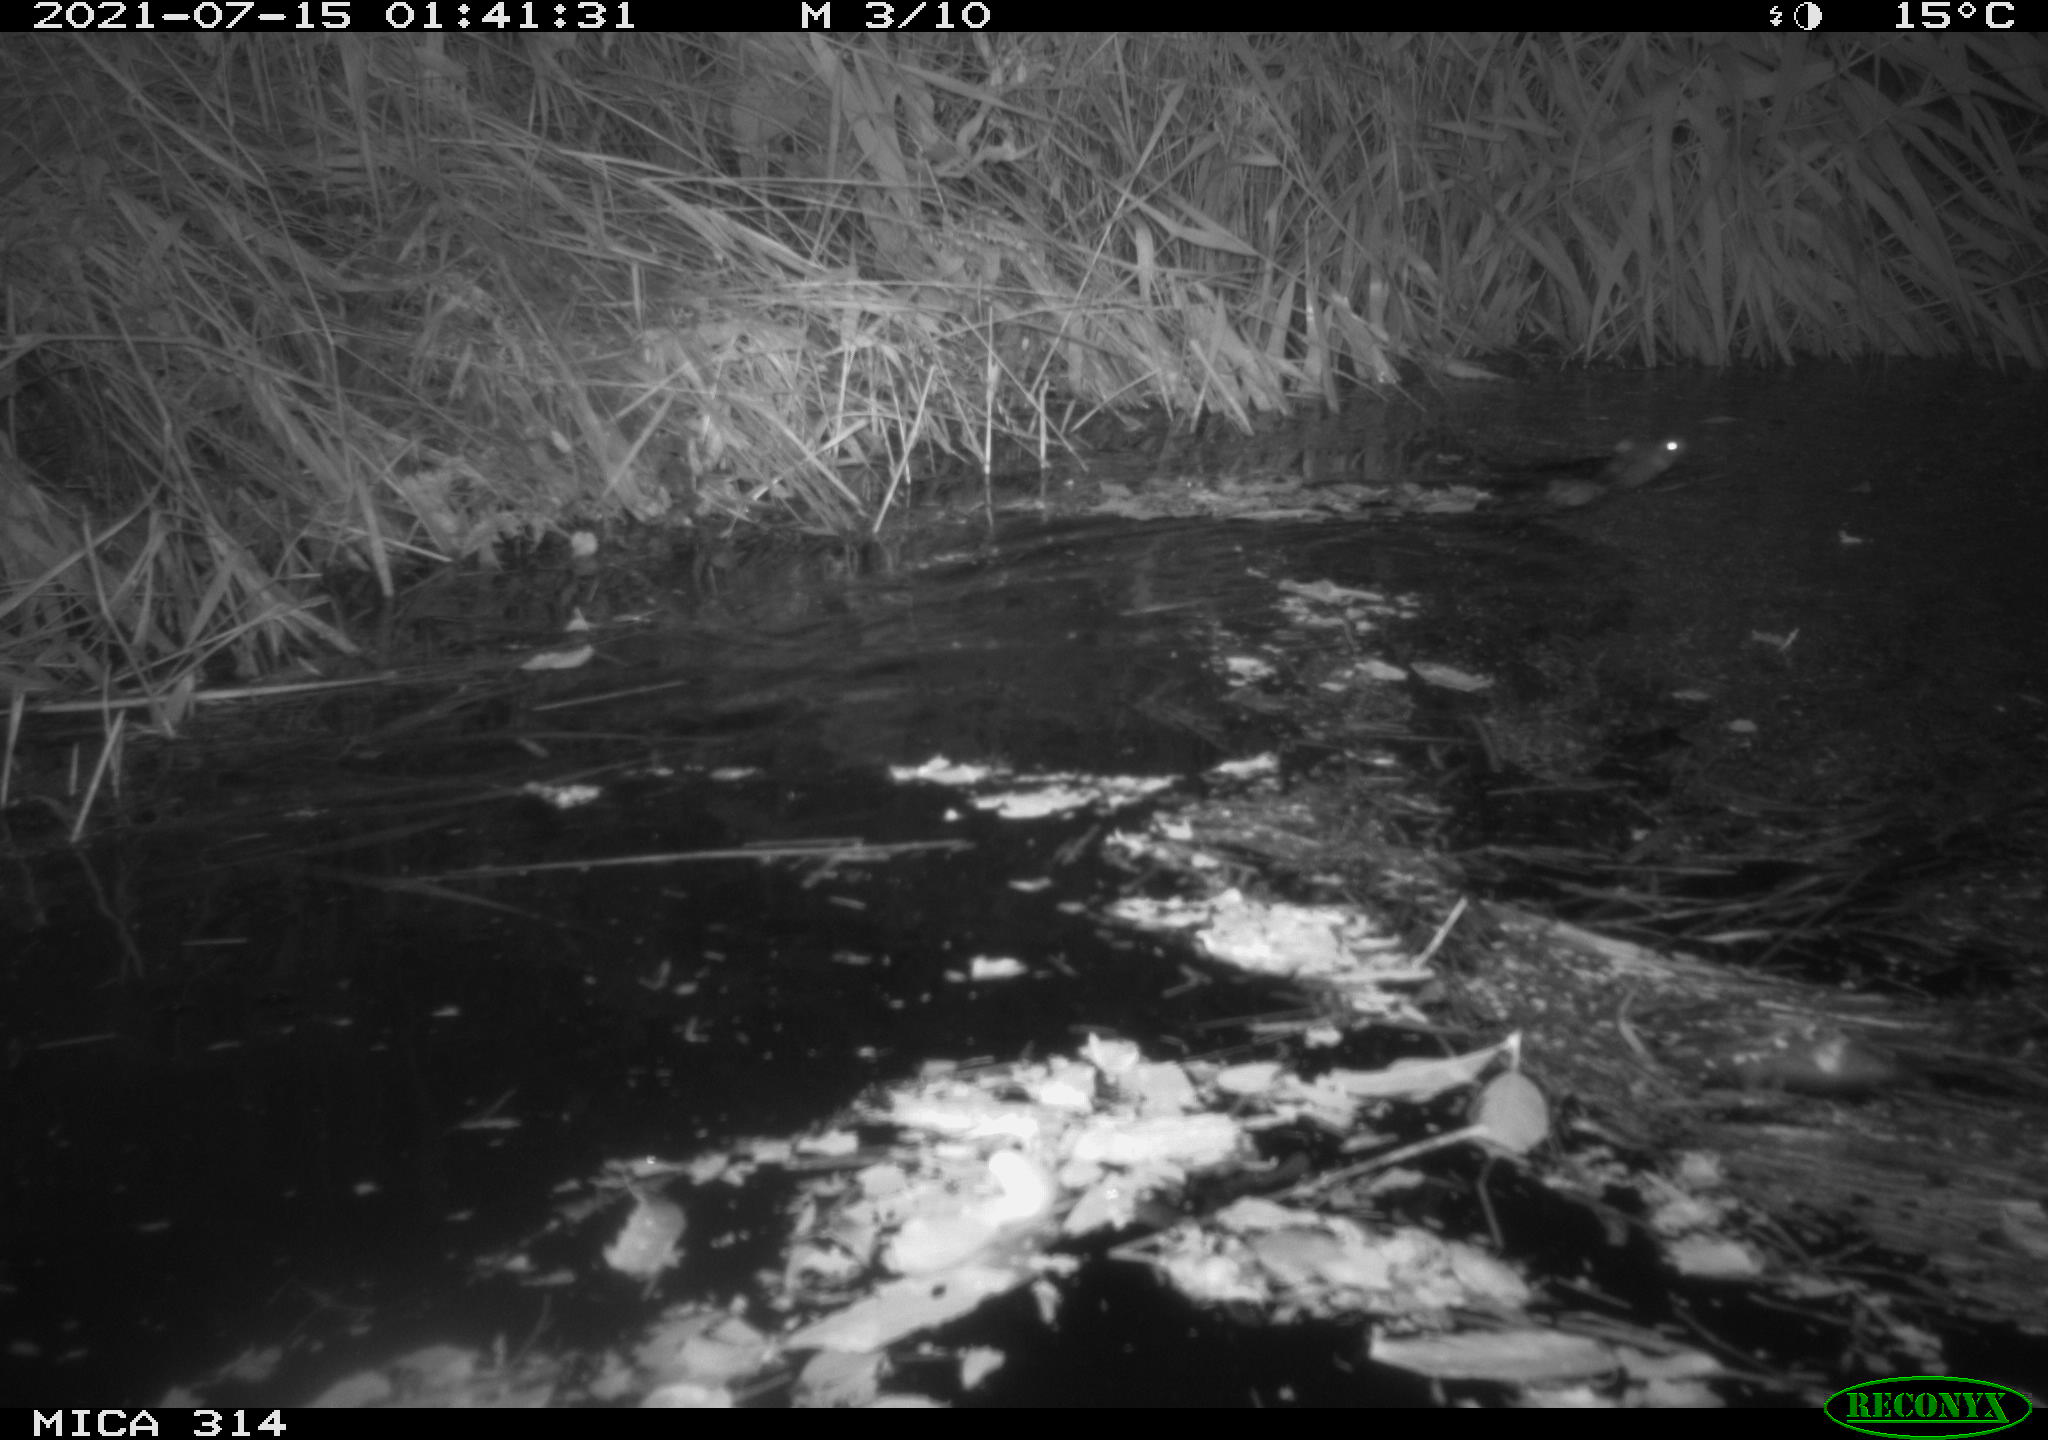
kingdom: Animalia
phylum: Chordata
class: Mammalia
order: Rodentia
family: Muridae
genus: Rattus
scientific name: Rattus norvegicus
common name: Brown rat
